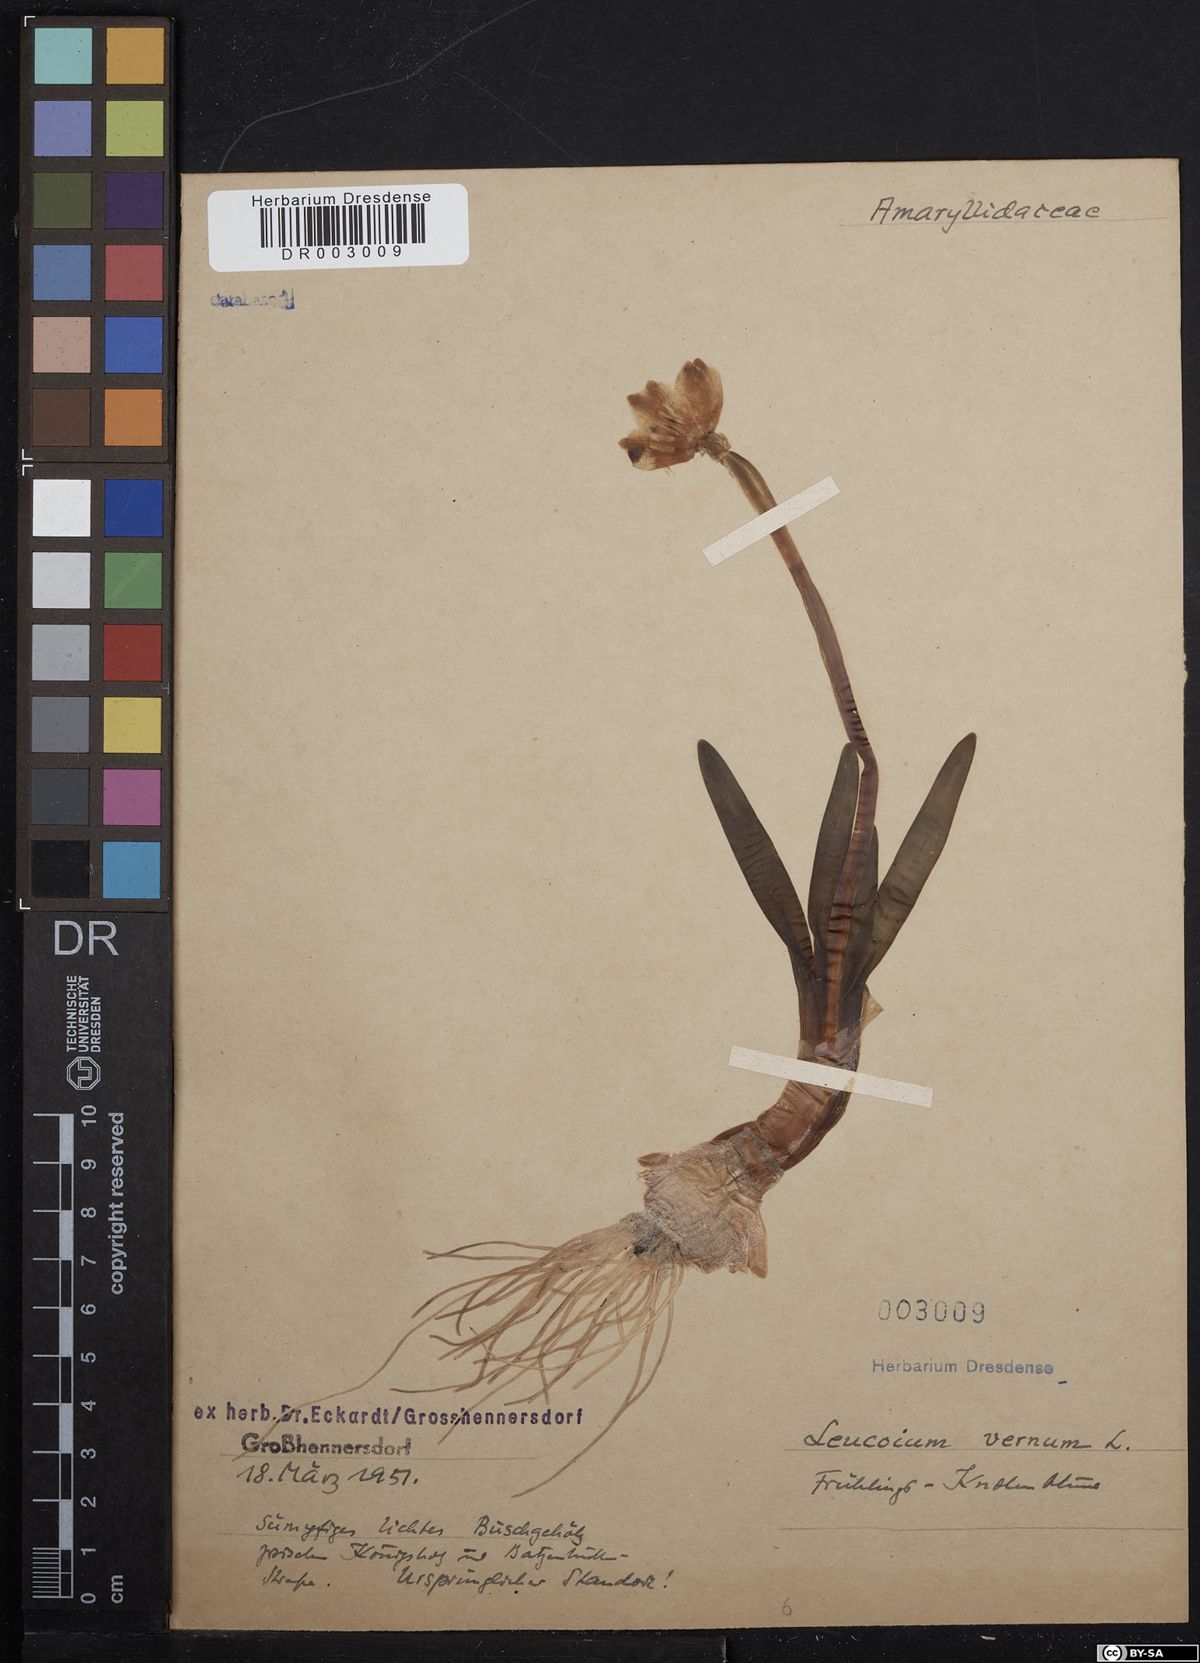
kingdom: Plantae
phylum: Tracheophyta
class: Liliopsida
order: Asparagales
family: Amaryllidaceae
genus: Leucojum
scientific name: Leucojum vernum
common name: Spring snowflake
